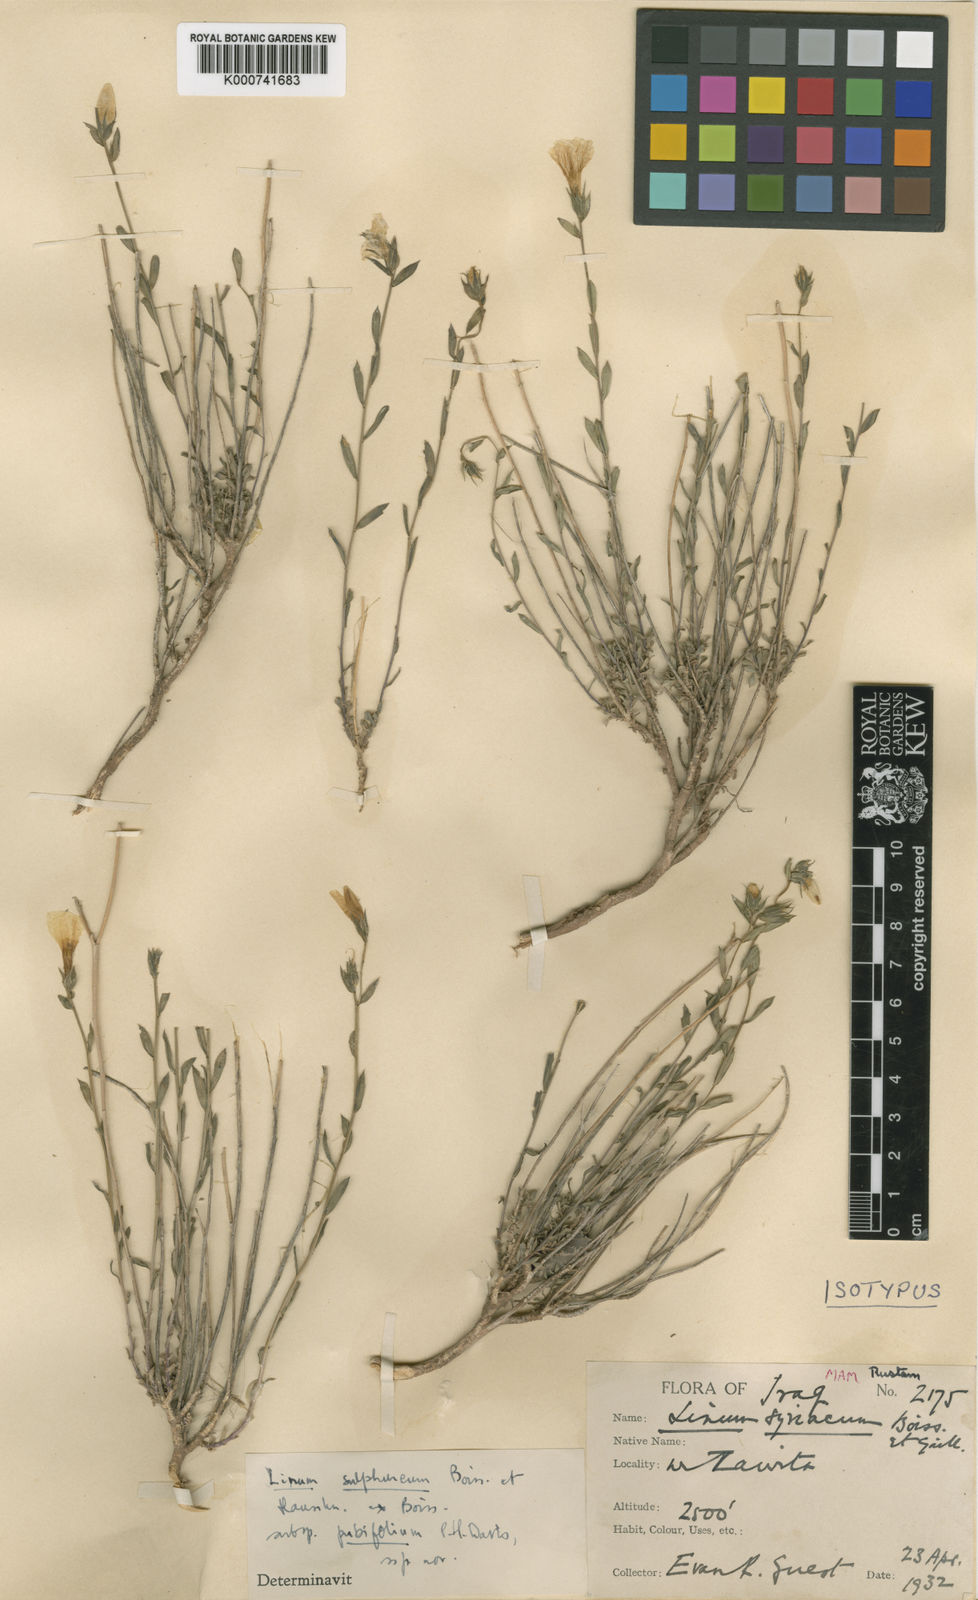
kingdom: Plantae
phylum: Tracheophyta
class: Magnoliopsida
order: Malpighiales
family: Linaceae
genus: Linum
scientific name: Linum
